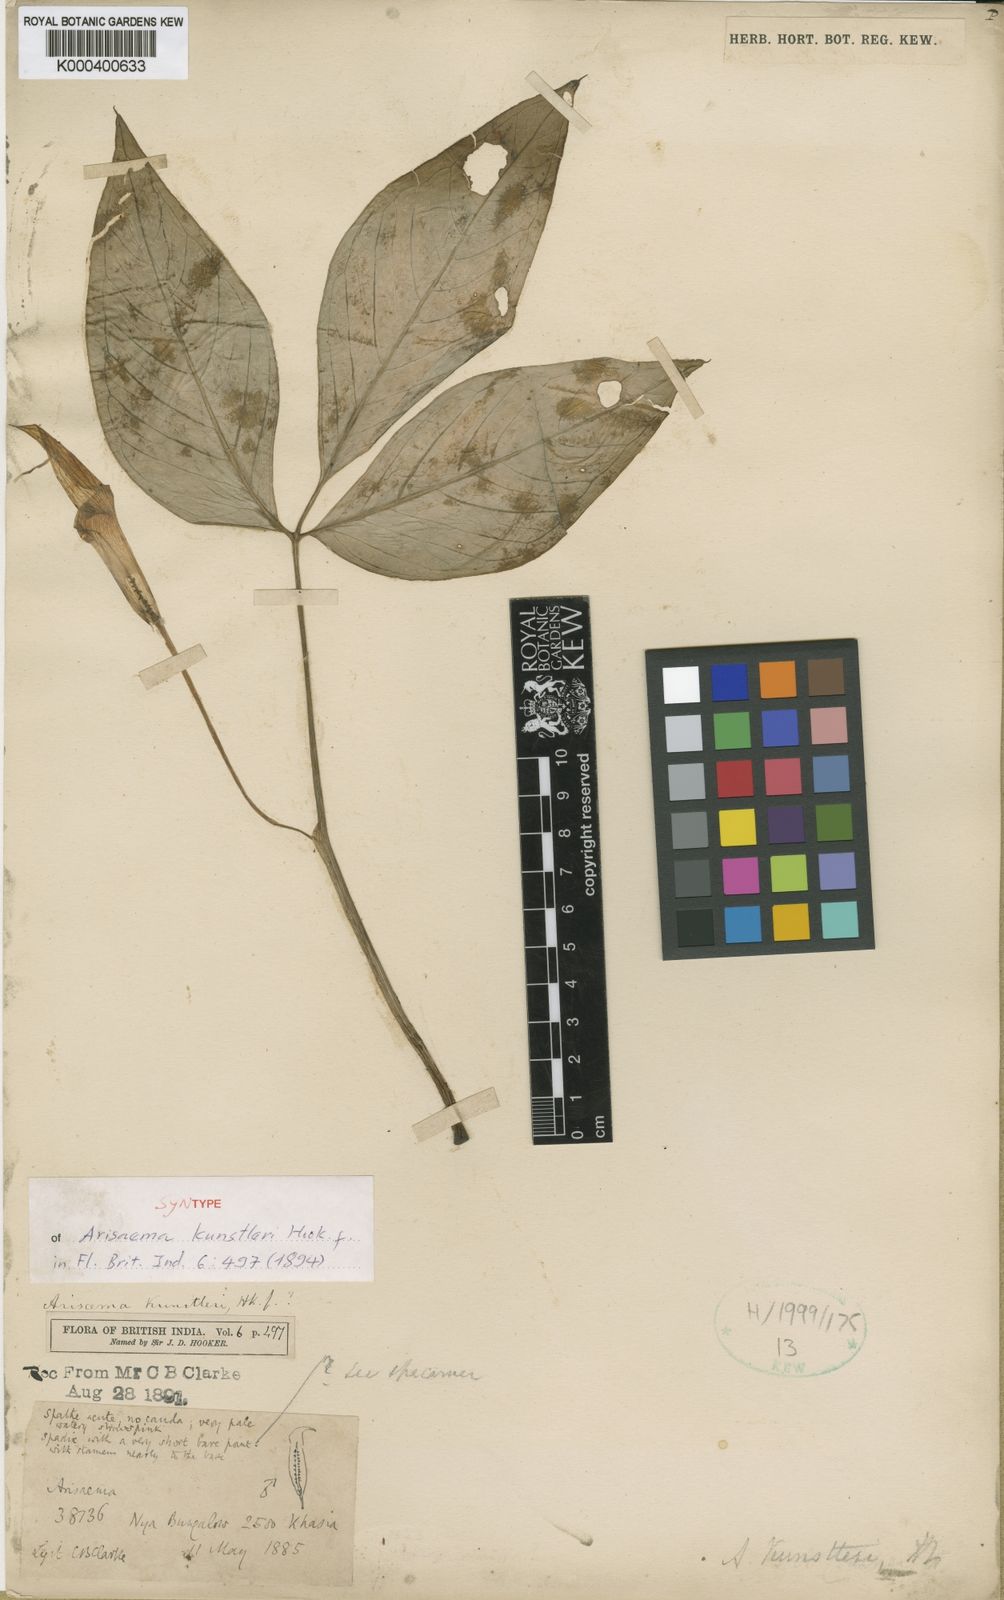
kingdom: Plantae
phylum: Tracheophyta
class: Liliopsida
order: Alismatales
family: Araceae
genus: Arisaema
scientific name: Arisaema roxburghii
